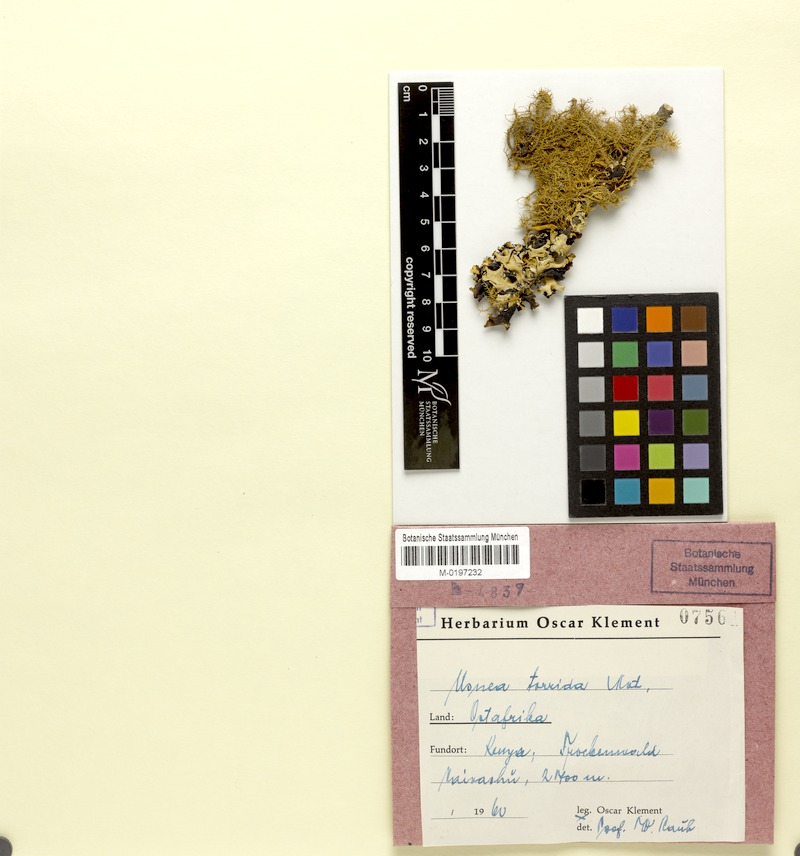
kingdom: Fungi
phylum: Ascomycota
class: Lecanoromycetes
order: Lecanorales
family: Parmeliaceae
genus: Usnea
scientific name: Usnea
